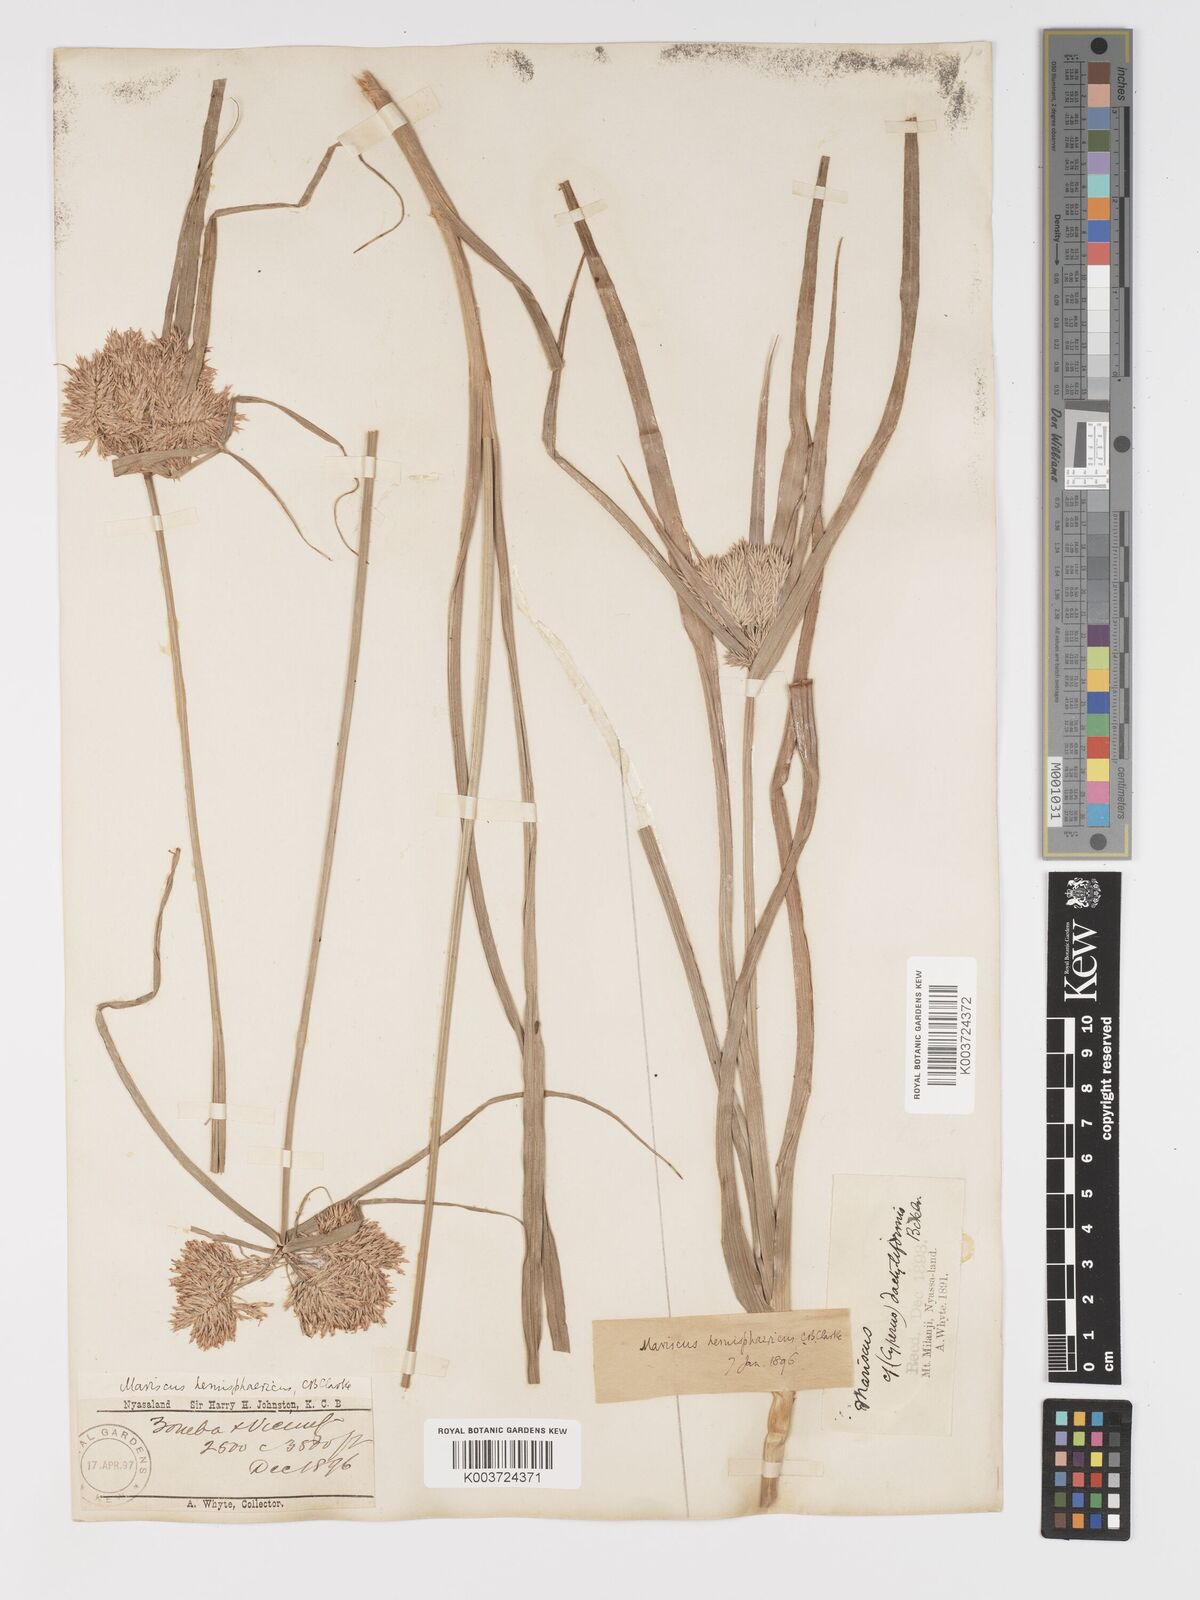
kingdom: Plantae
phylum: Tracheophyta
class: Liliopsida
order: Poales
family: Cyperaceae
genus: Cyperus
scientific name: Cyperus hemisphaericus
